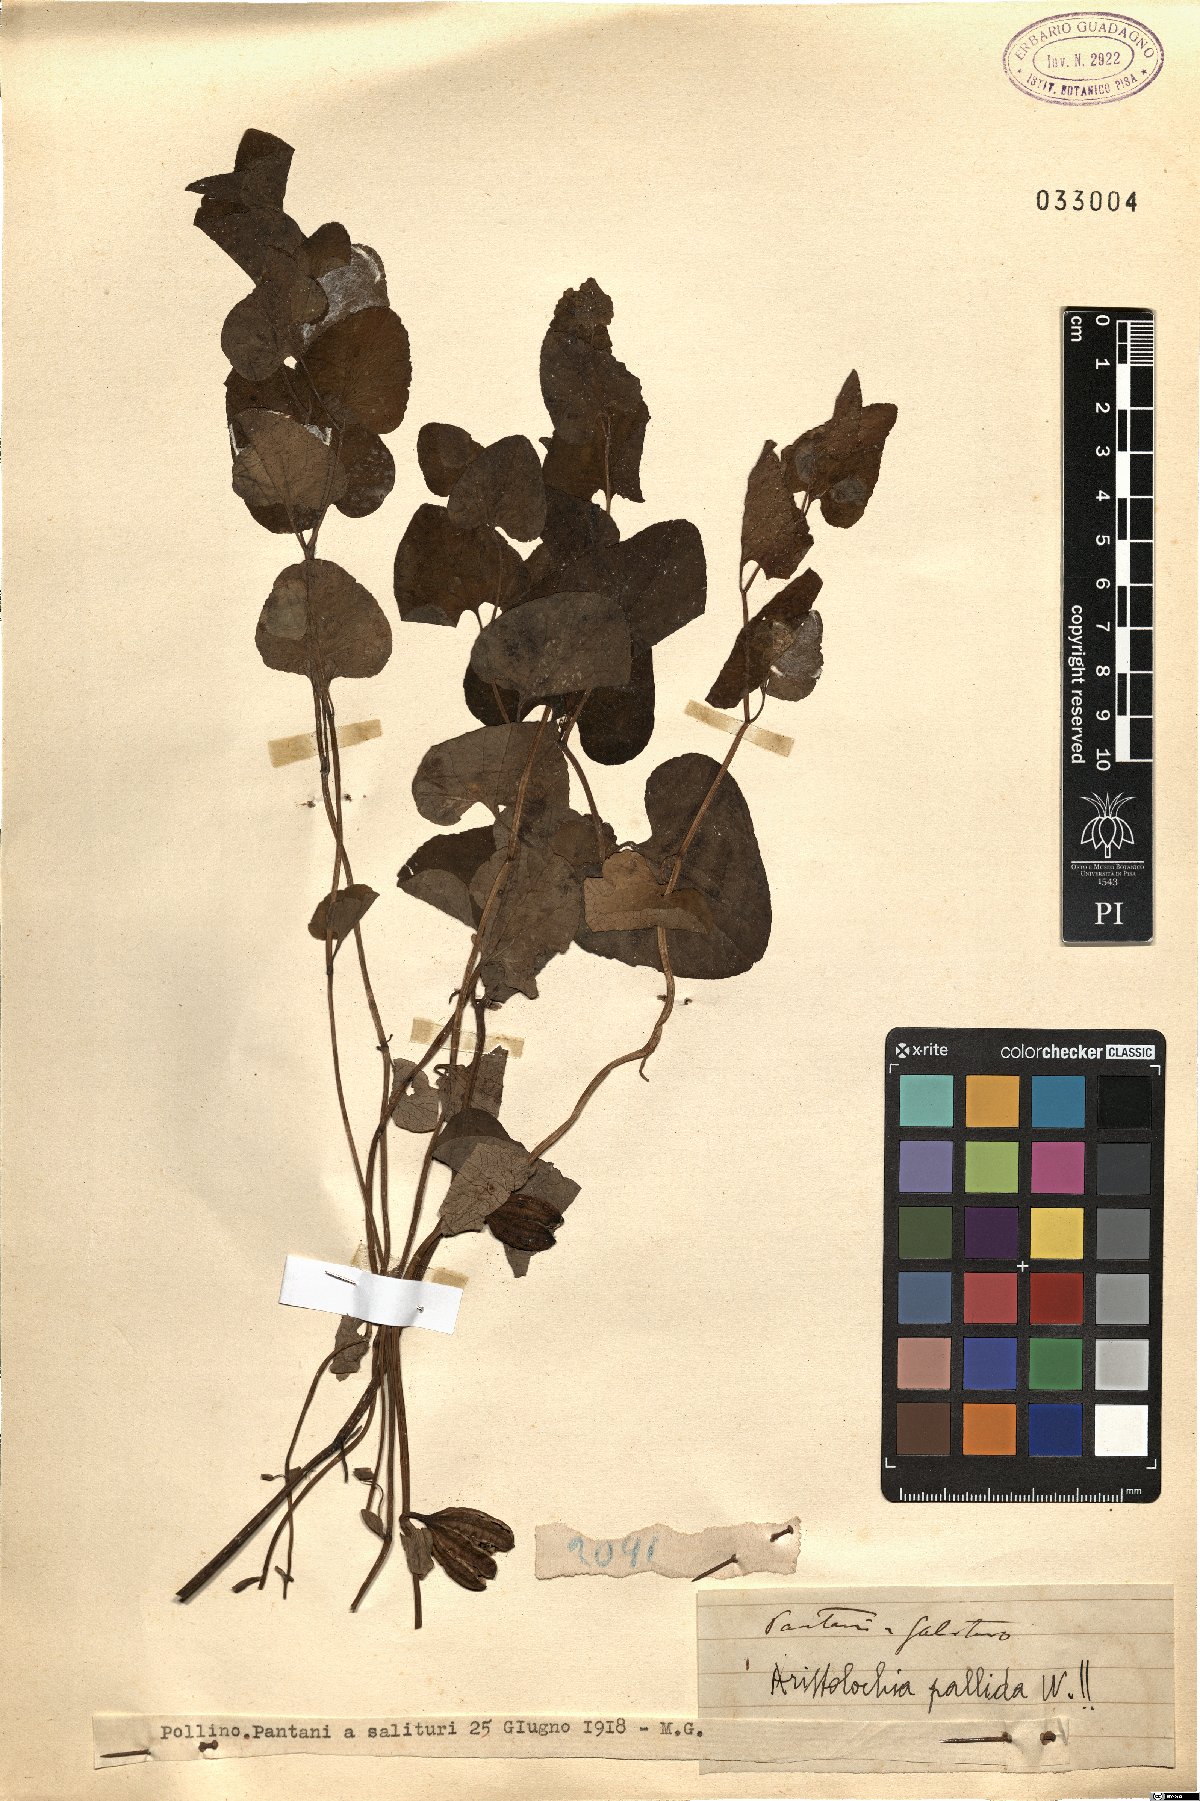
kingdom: Plantae
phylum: Tracheophyta
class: Magnoliopsida
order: Piperales
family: Aristolochiaceae
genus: Aristolochia
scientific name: Aristolochia pallida
